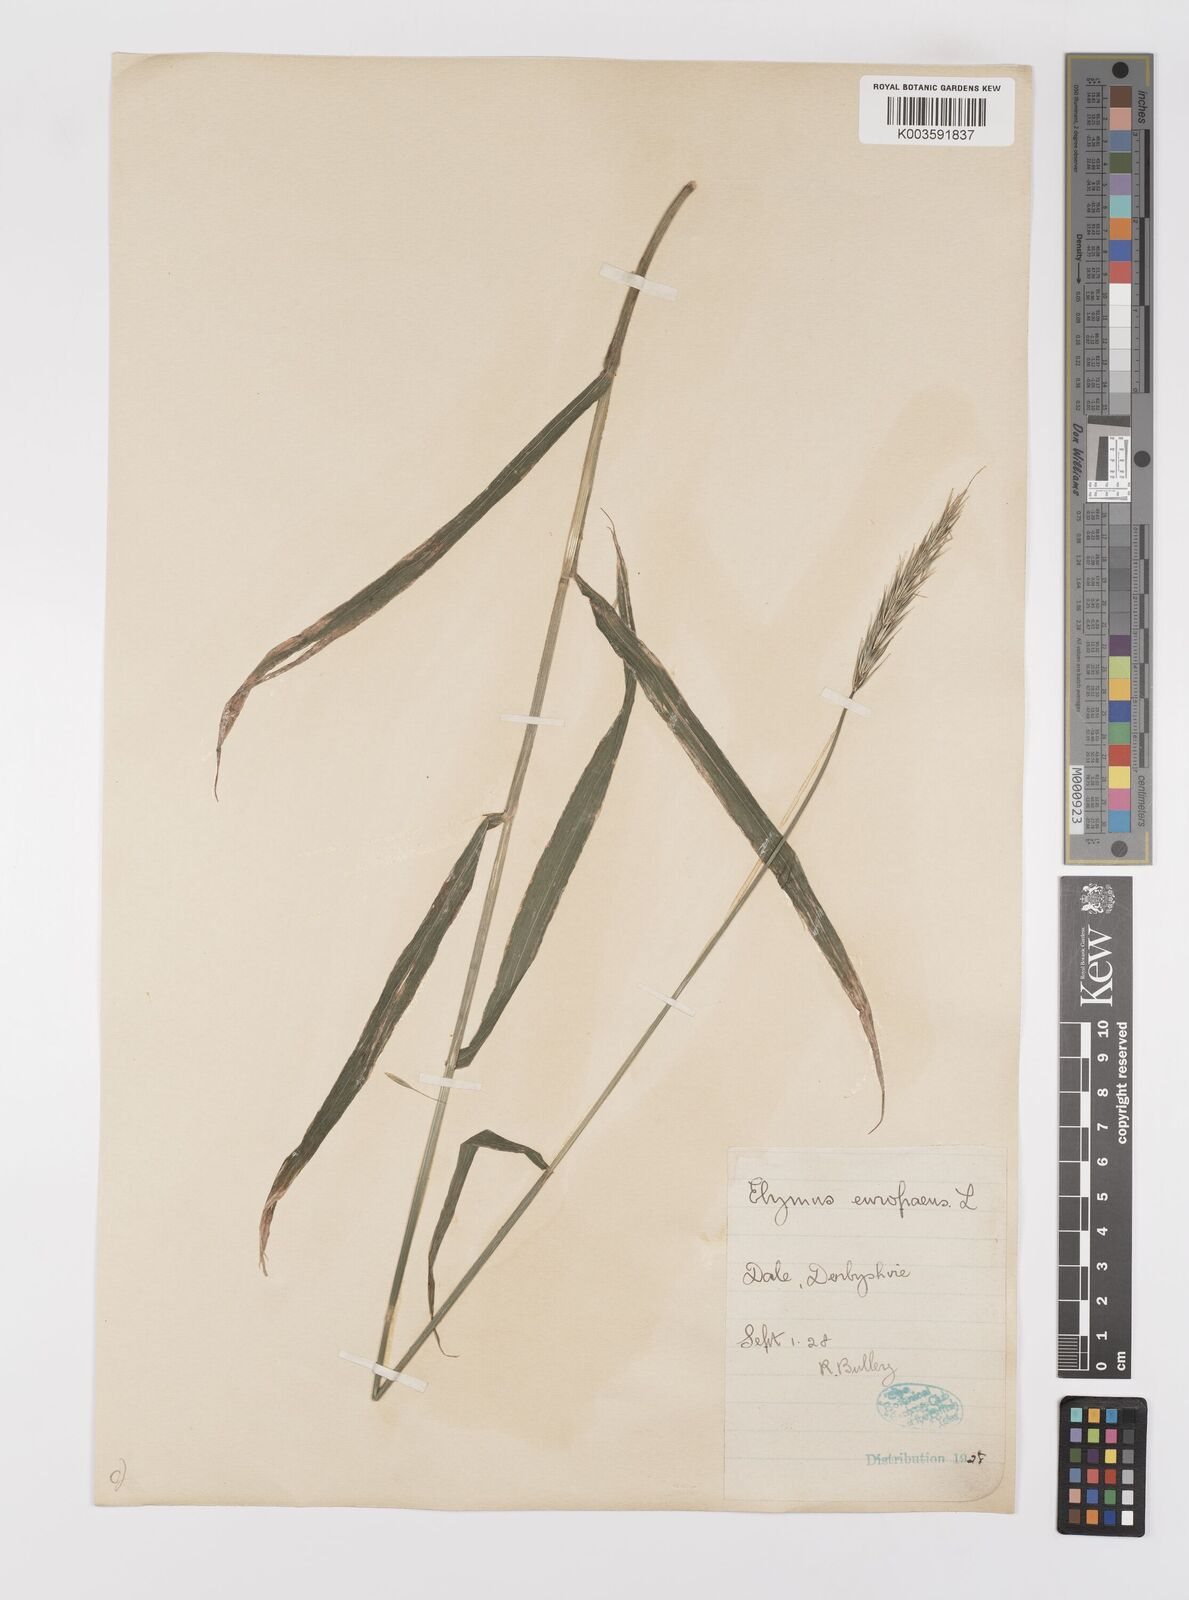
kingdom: Plantae
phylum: Tracheophyta
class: Liliopsida
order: Poales
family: Poaceae
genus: Hordelymus
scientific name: Hordelymus europaeus
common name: Wood-barley
